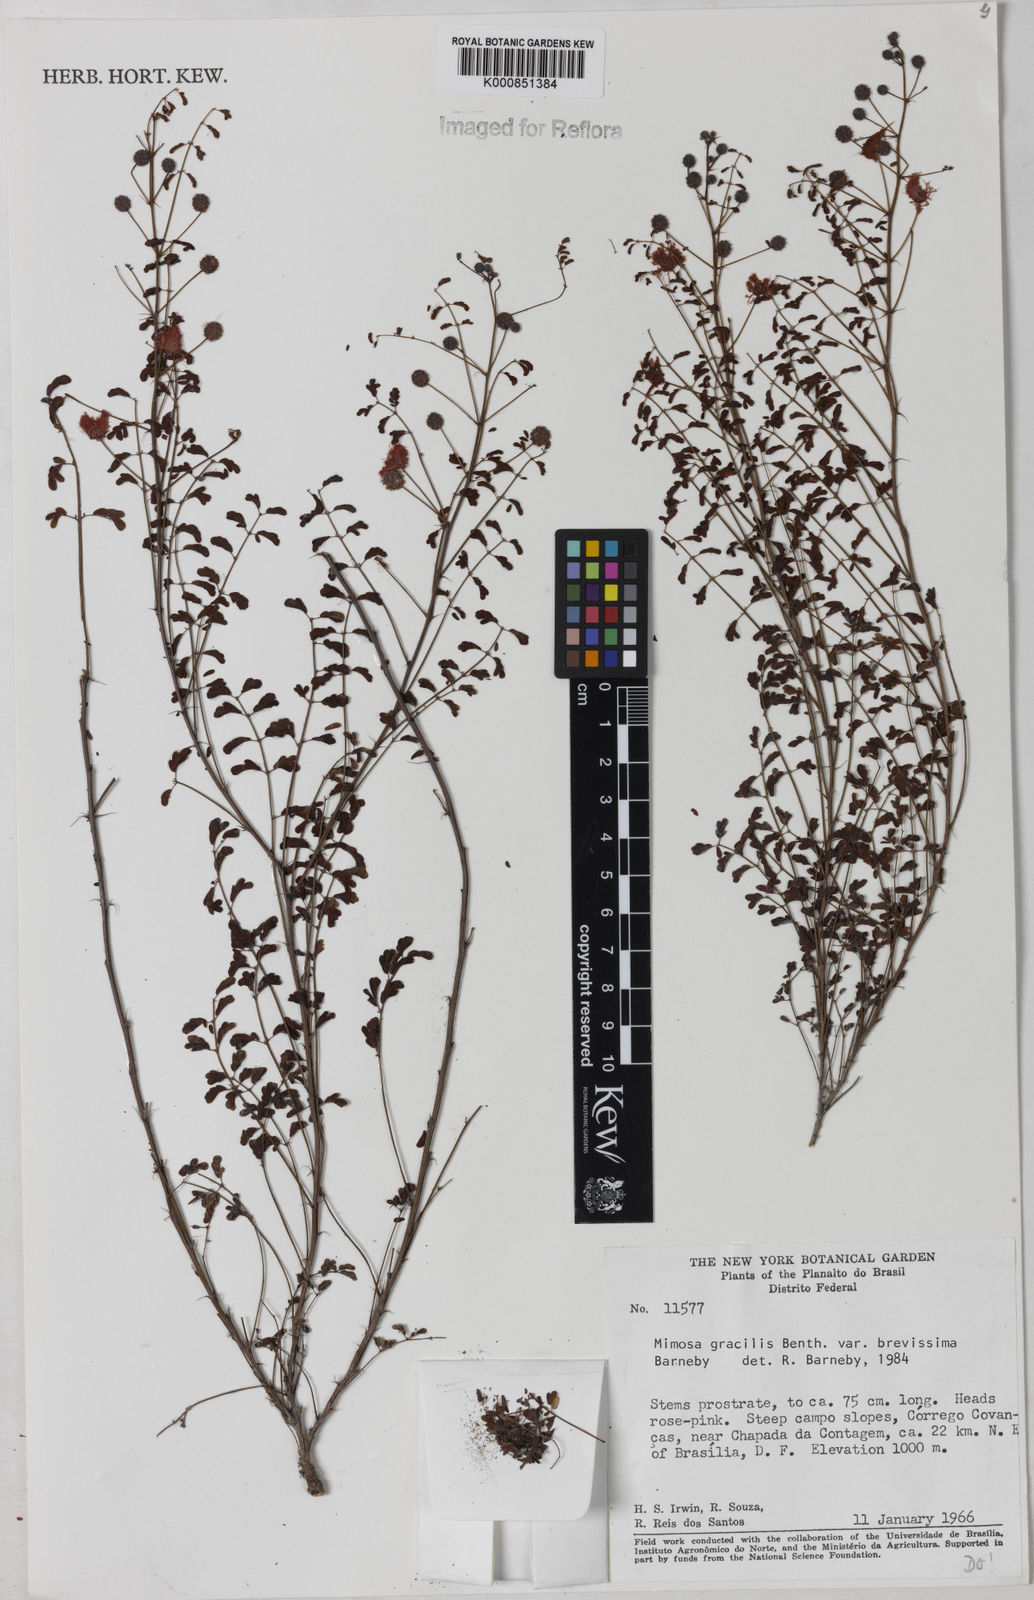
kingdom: Plantae
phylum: Tracheophyta
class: Magnoliopsida
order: Fabales
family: Fabaceae
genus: Mimosa
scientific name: Mimosa gracilis
